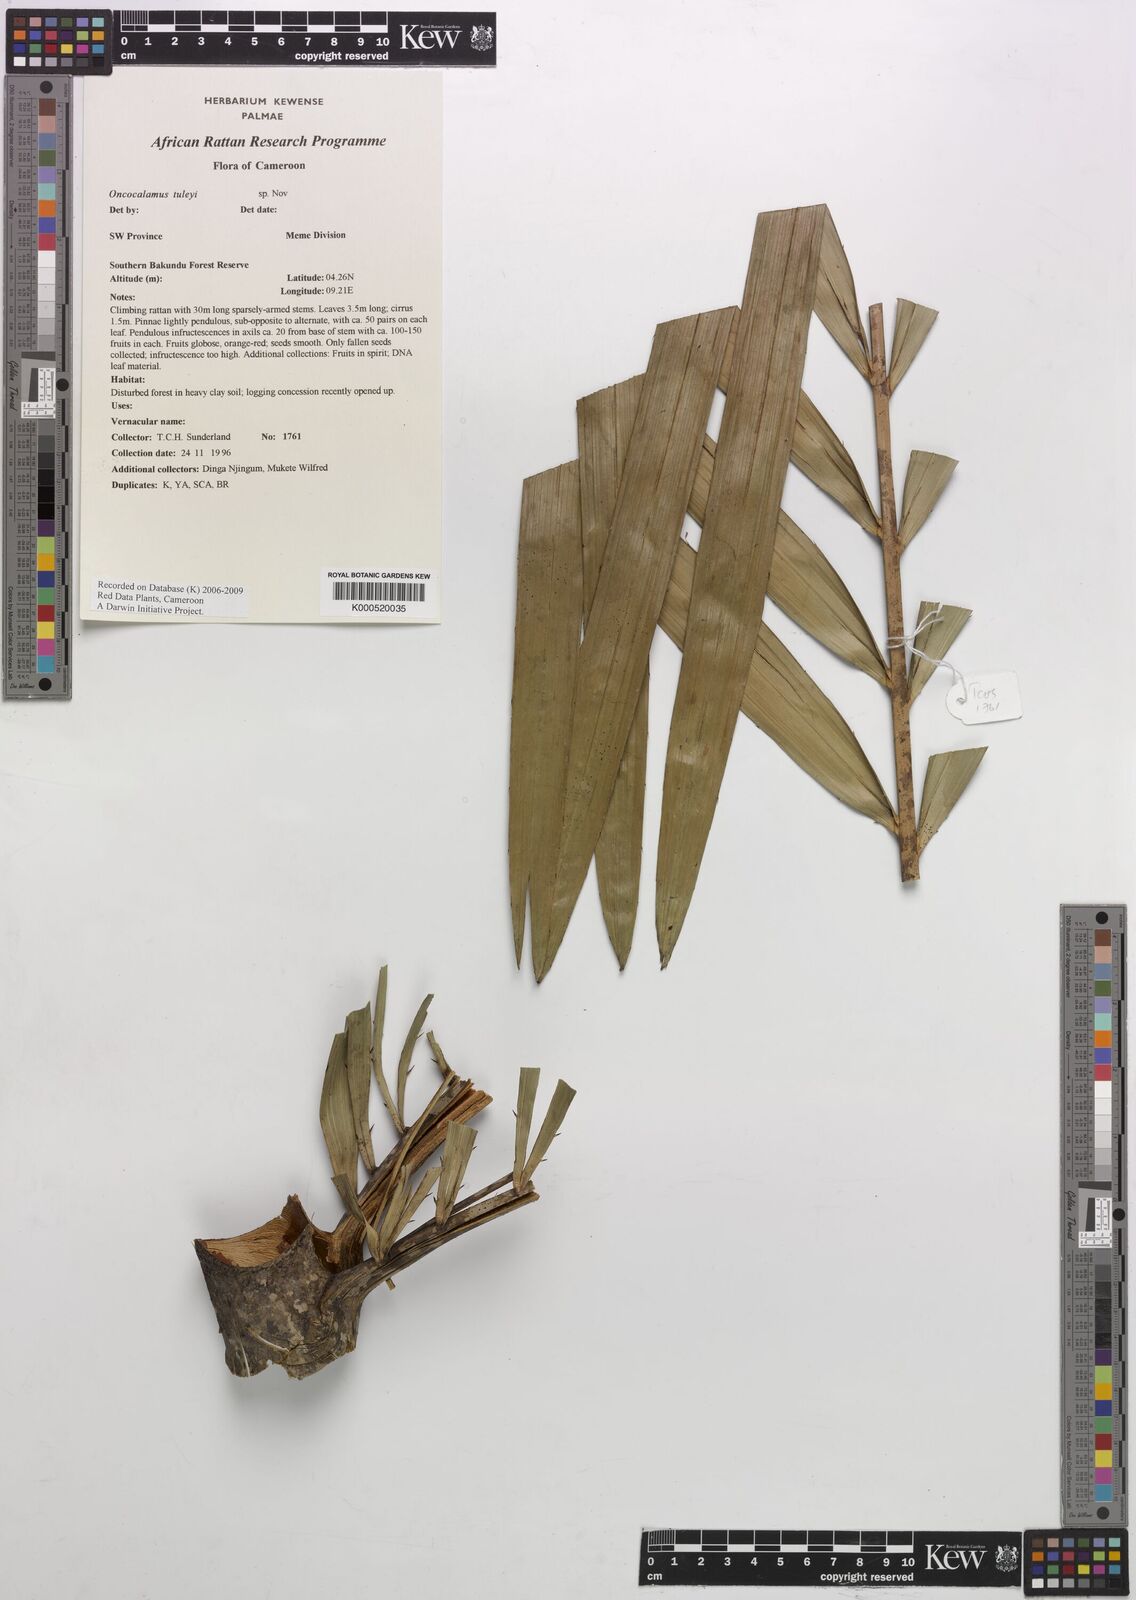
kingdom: Plantae
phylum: Tracheophyta
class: Liliopsida
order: Arecales
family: Arecaceae
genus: Oncocalamus
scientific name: Oncocalamus tuleyi
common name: Rattan
